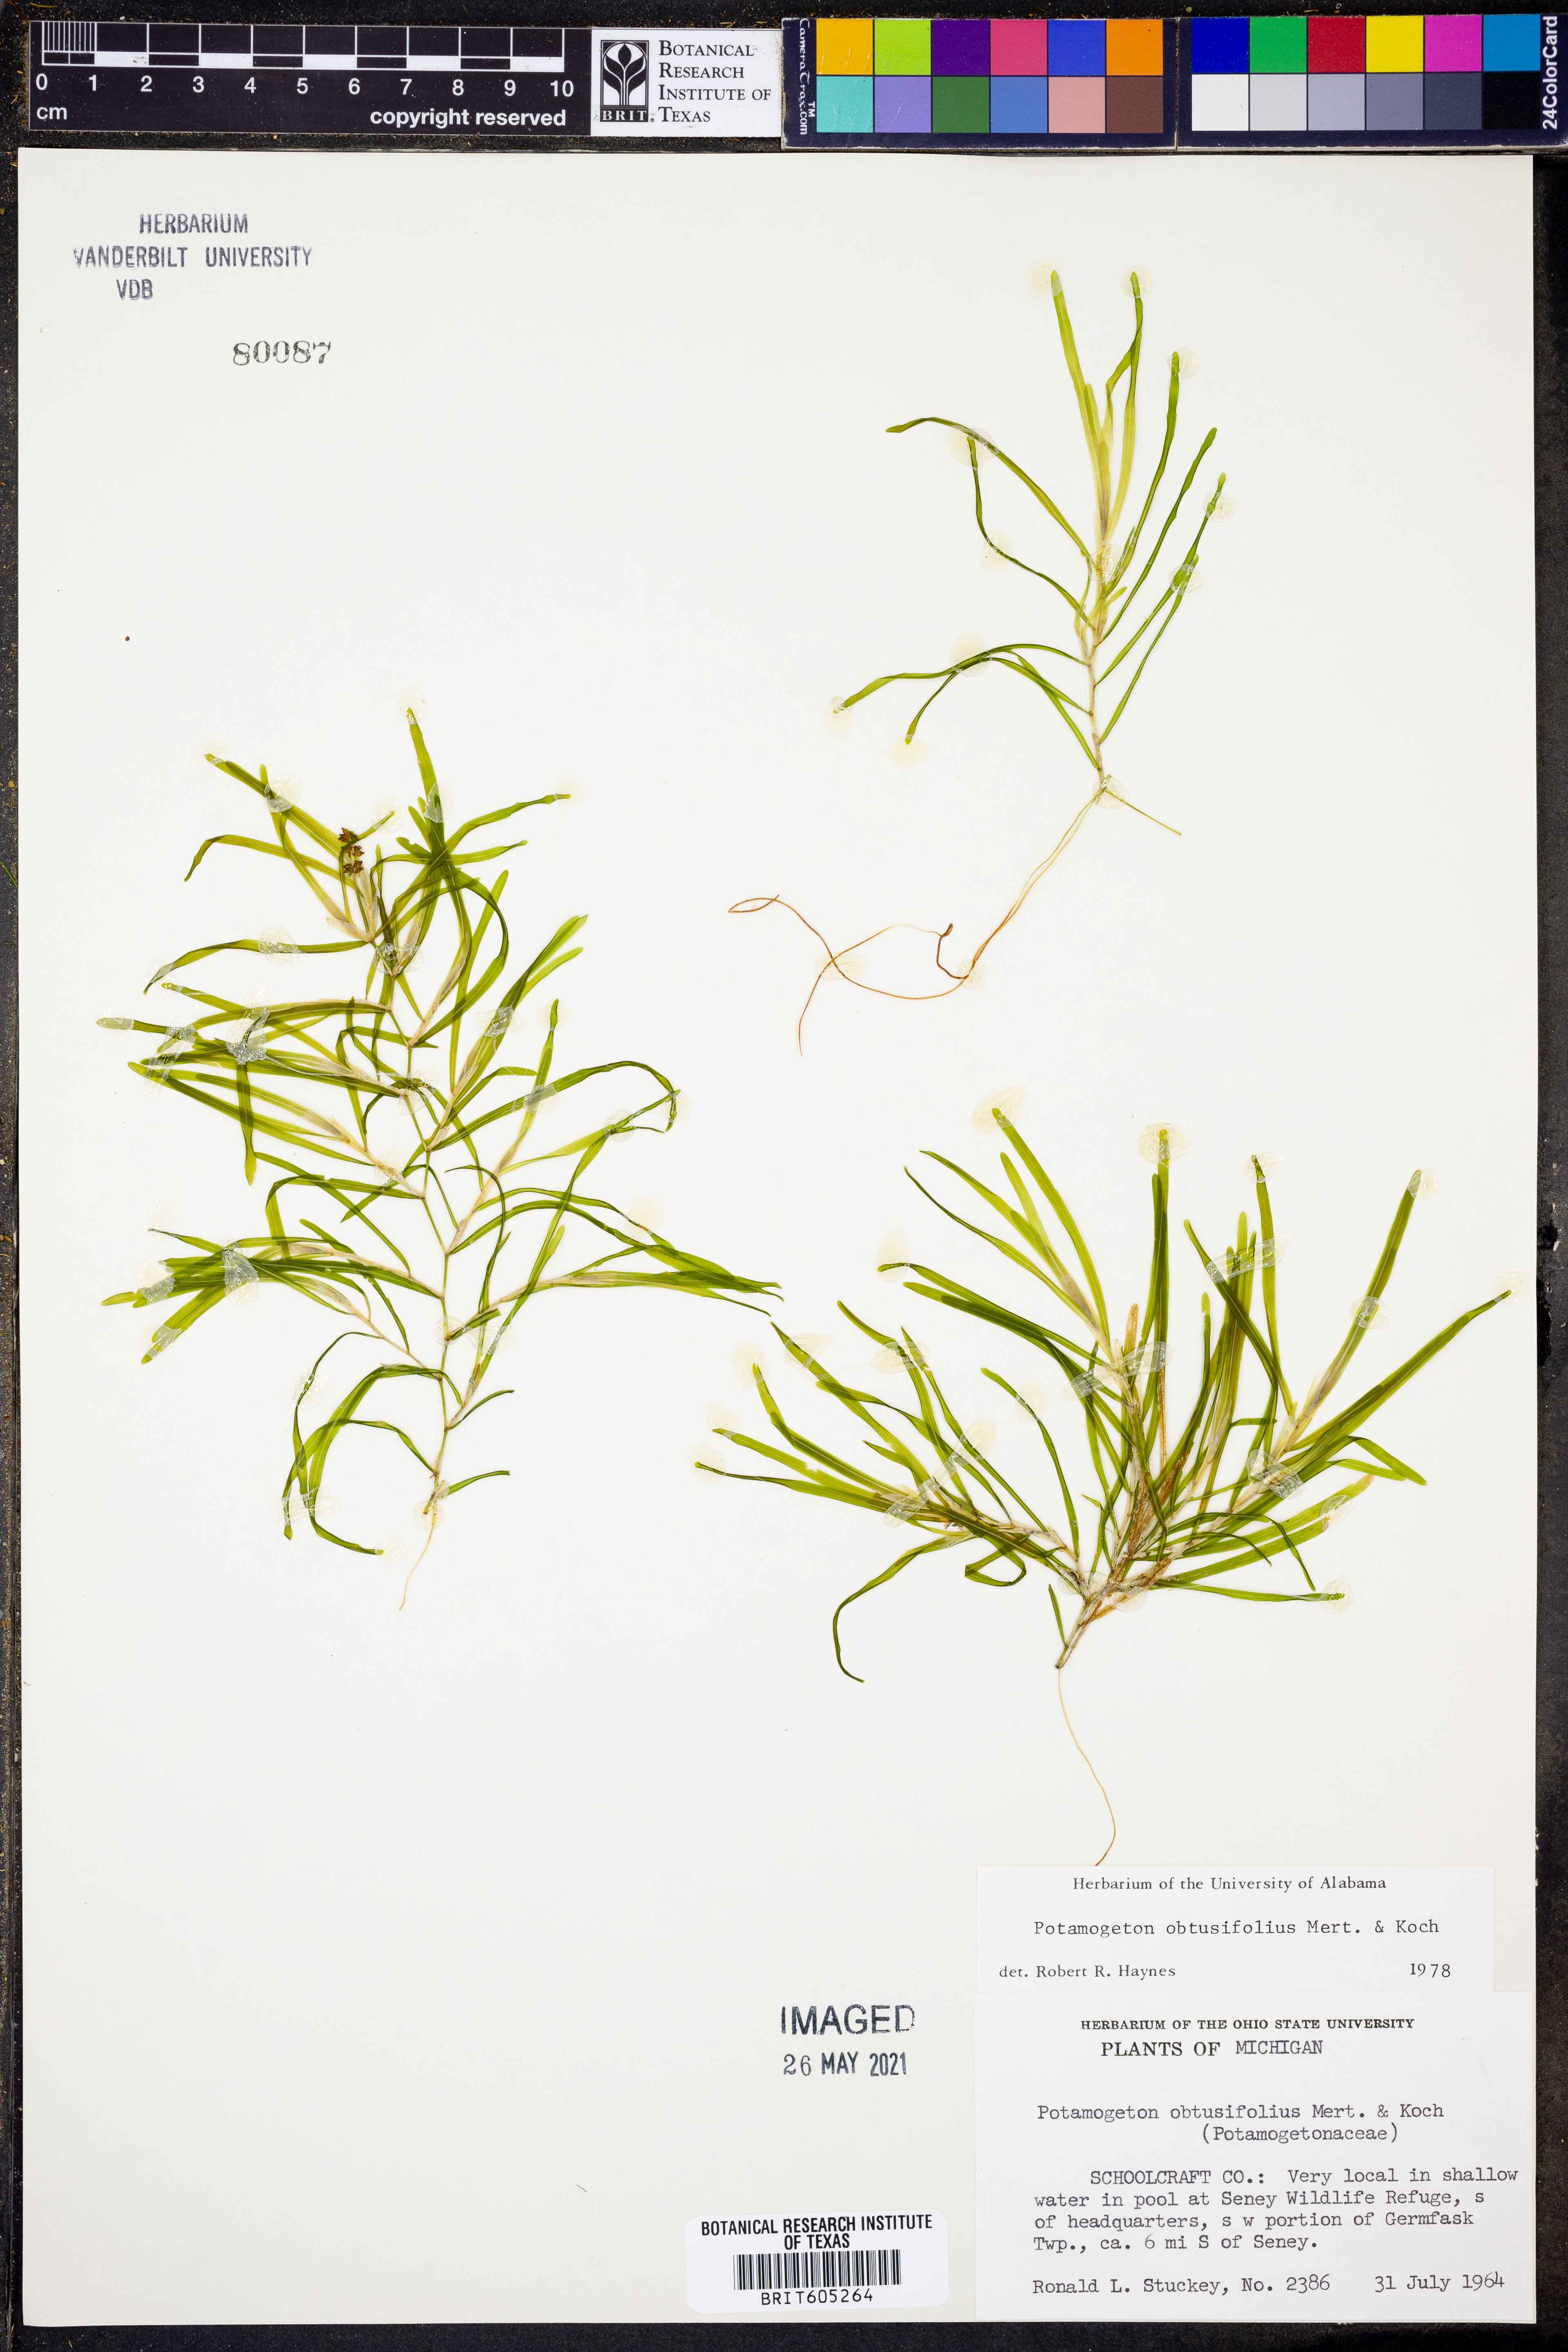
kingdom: Plantae
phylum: Tracheophyta
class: Liliopsida
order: Alismatales
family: Potamogetonaceae
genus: Potamogeton
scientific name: Potamogeton obtusifolius
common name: Blunt-leaved pondweed
